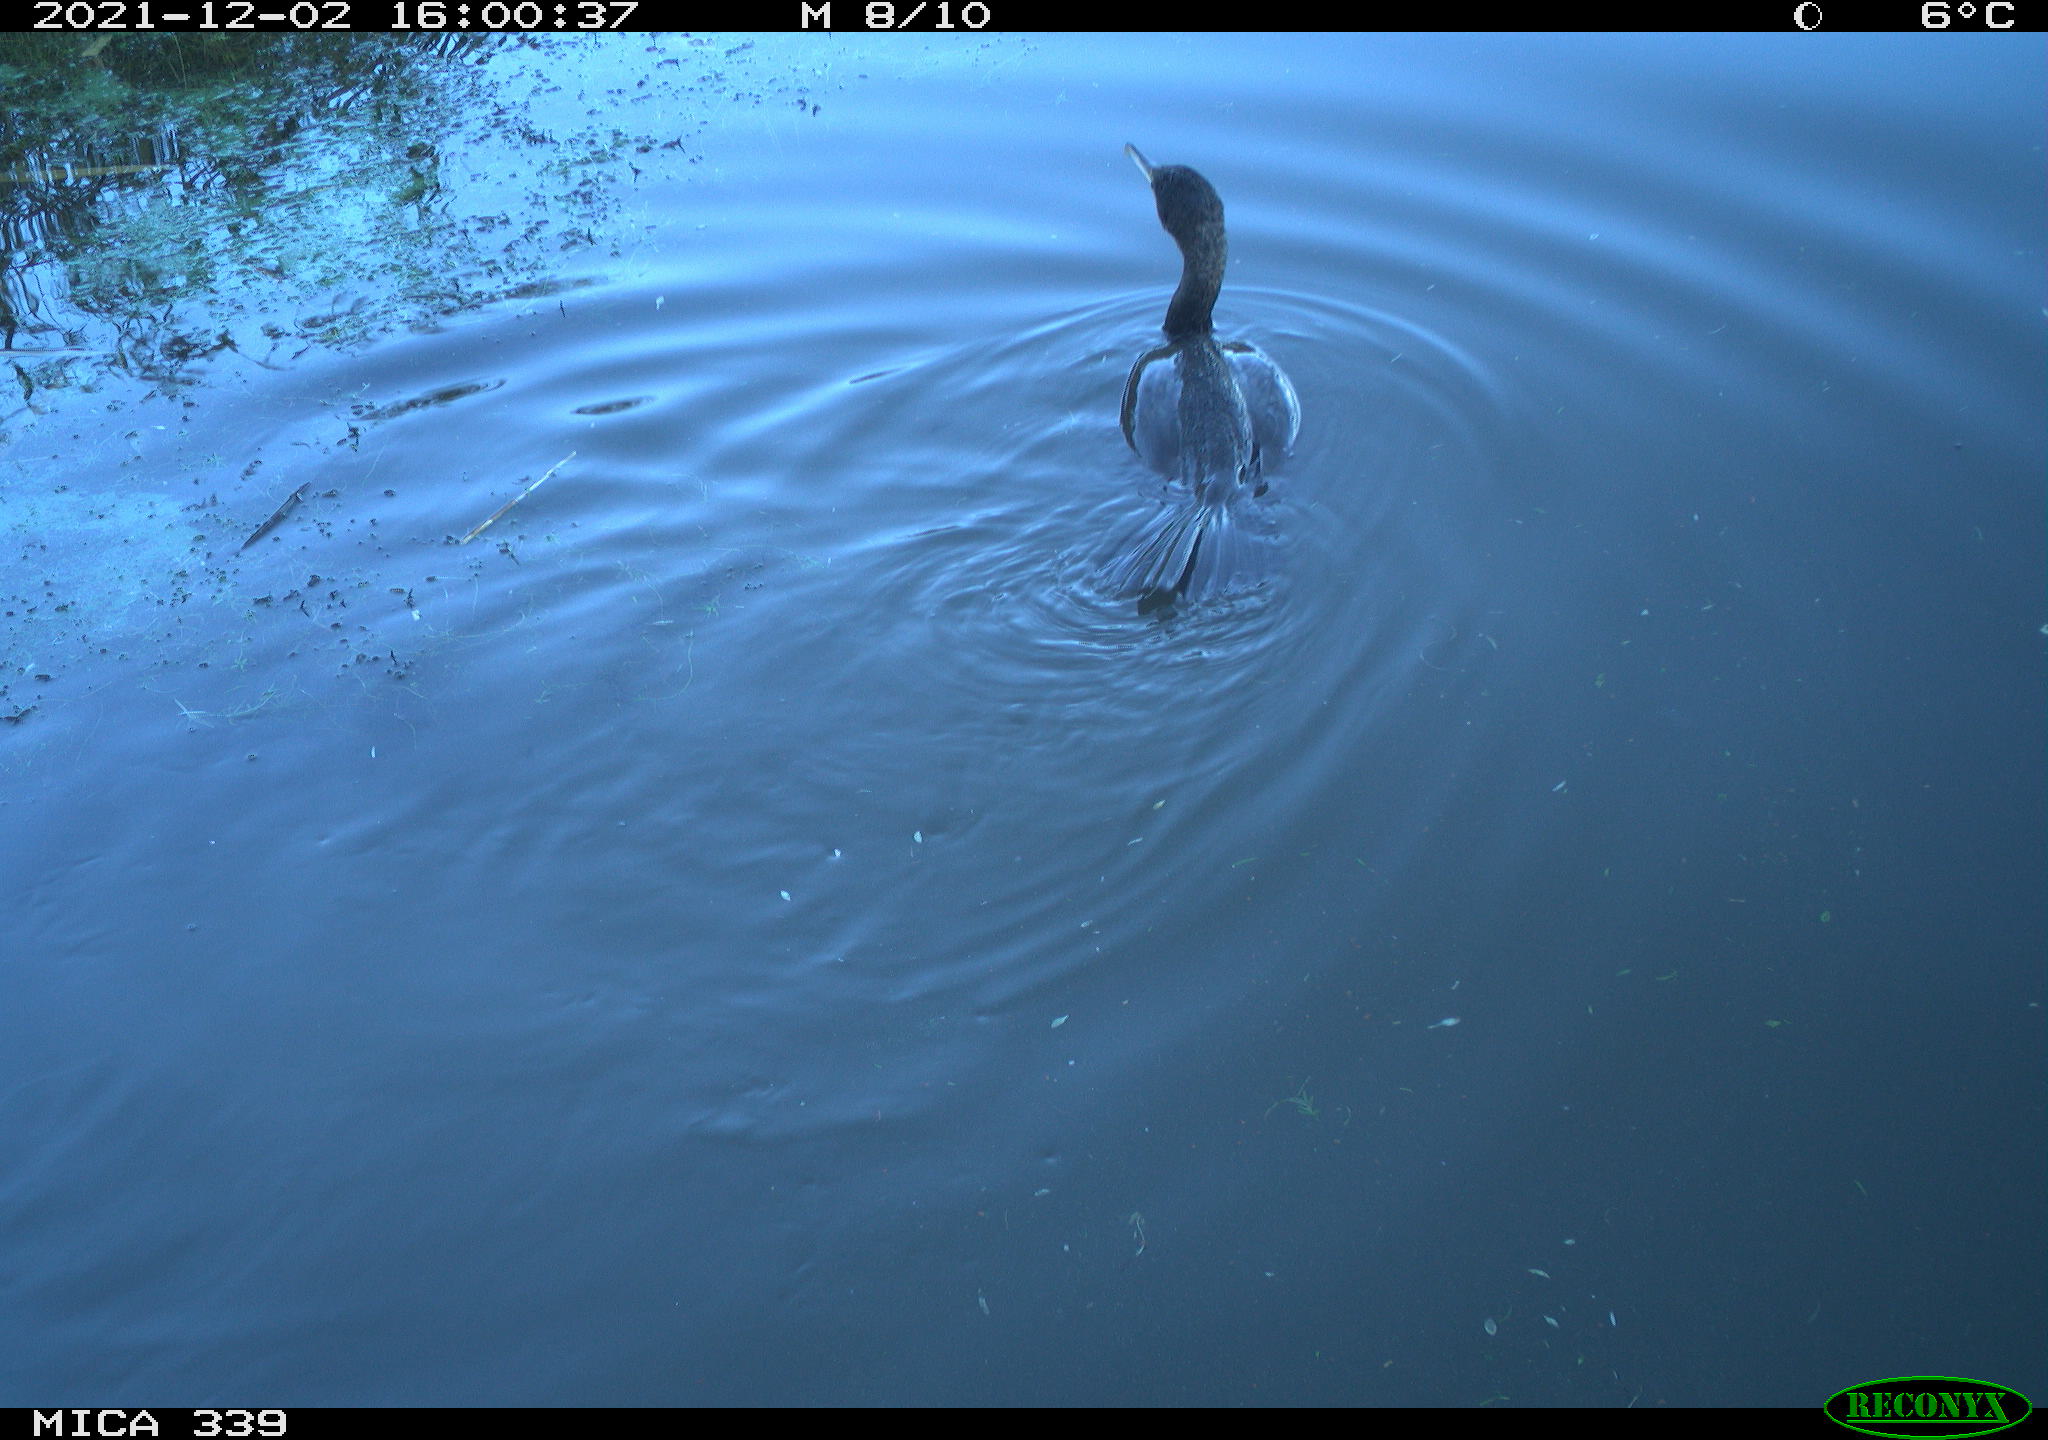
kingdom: Animalia
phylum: Chordata
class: Aves
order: Suliformes
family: Phalacrocoracidae
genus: Phalacrocorax
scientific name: Phalacrocorax carbo
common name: Great cormorant
